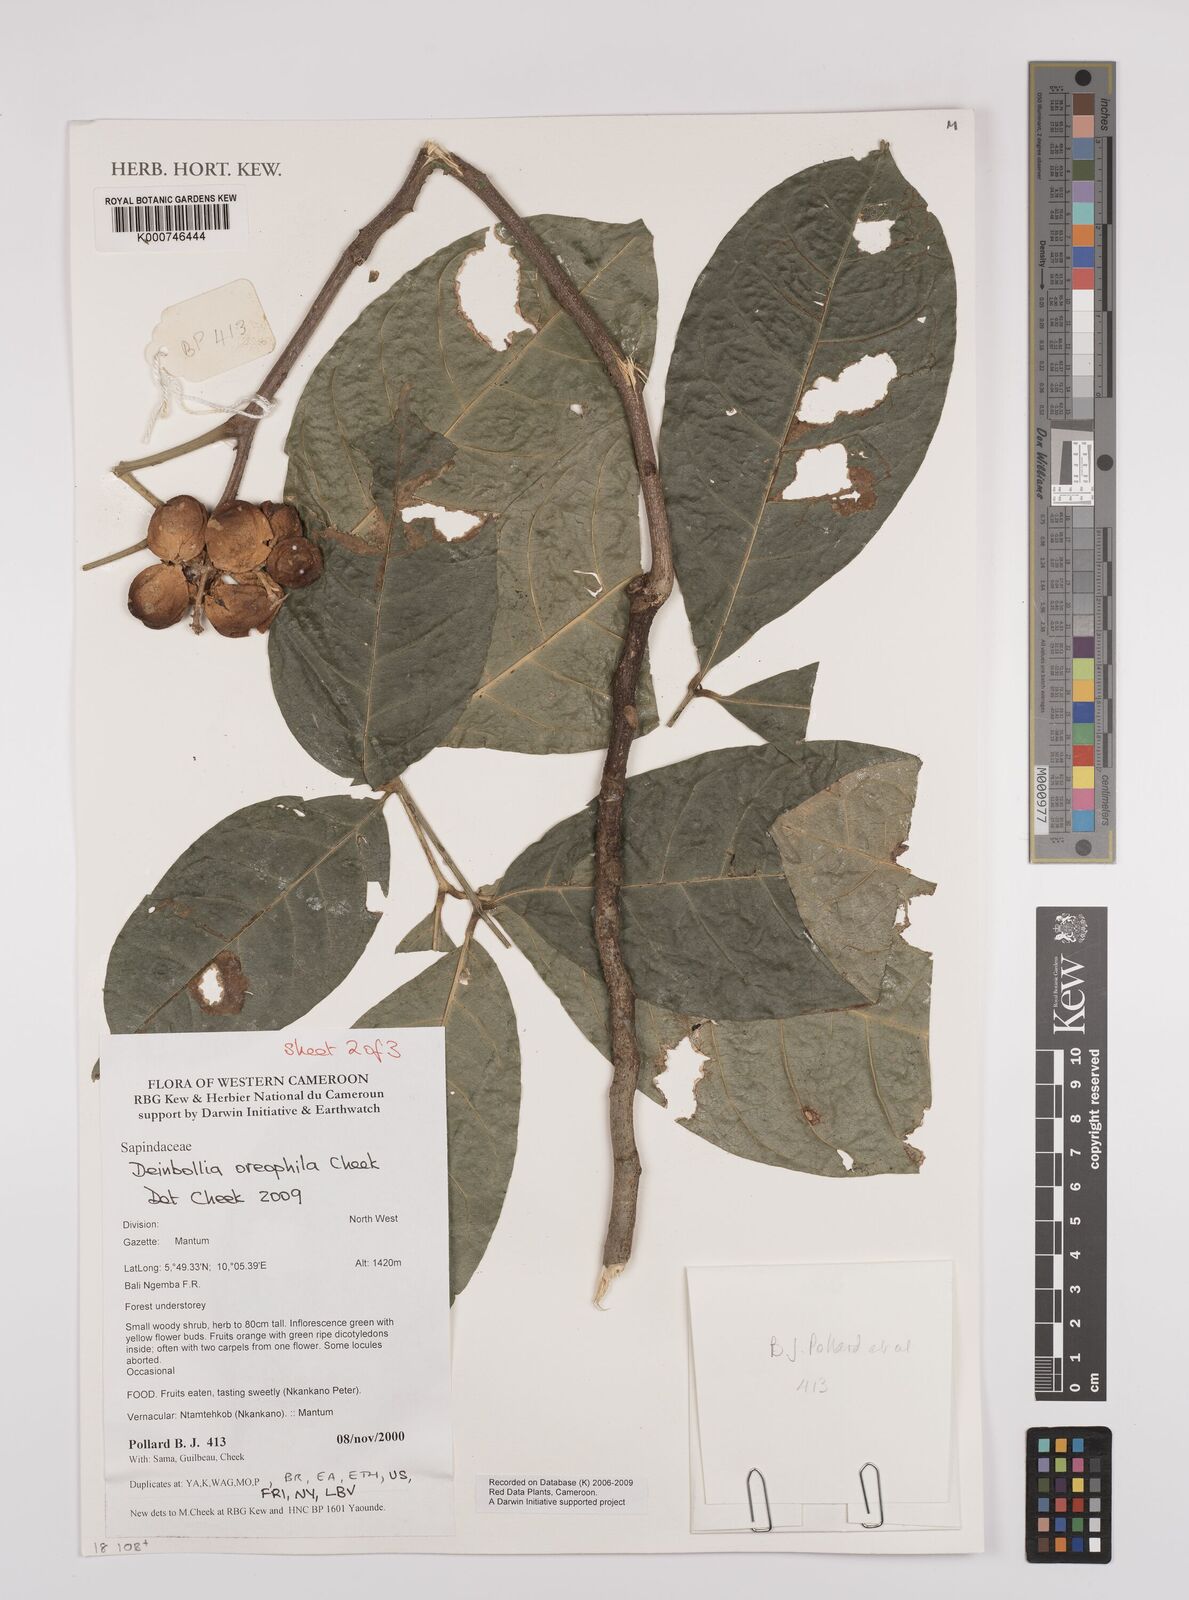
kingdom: Plantae
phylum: Tracheophyta
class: Magnoliopsida
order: Sapindales
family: Sapindaceae
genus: Deinbollia
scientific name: Deinbollia oreophila
